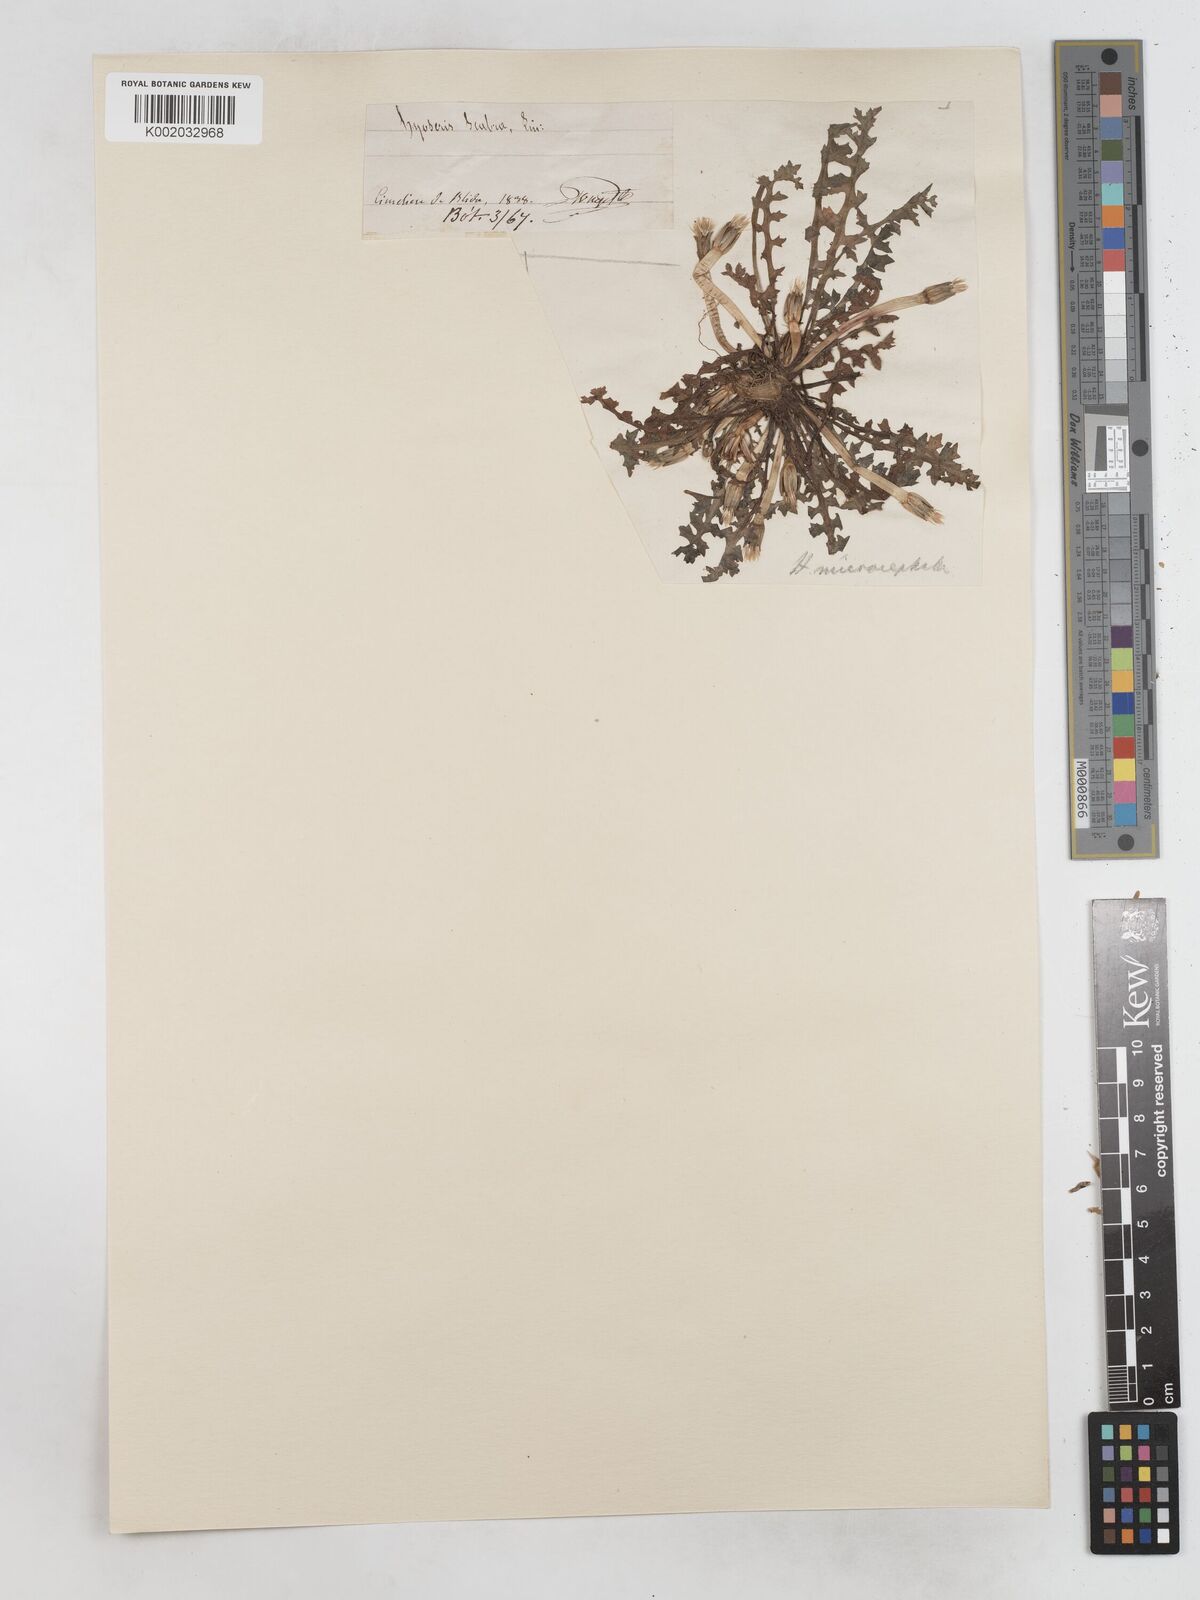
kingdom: Plantae
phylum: Tracheophyta
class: Magnoliopsida
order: Asterales
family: Asteraceae
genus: Hyoseris
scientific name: Hyoseris scabra
